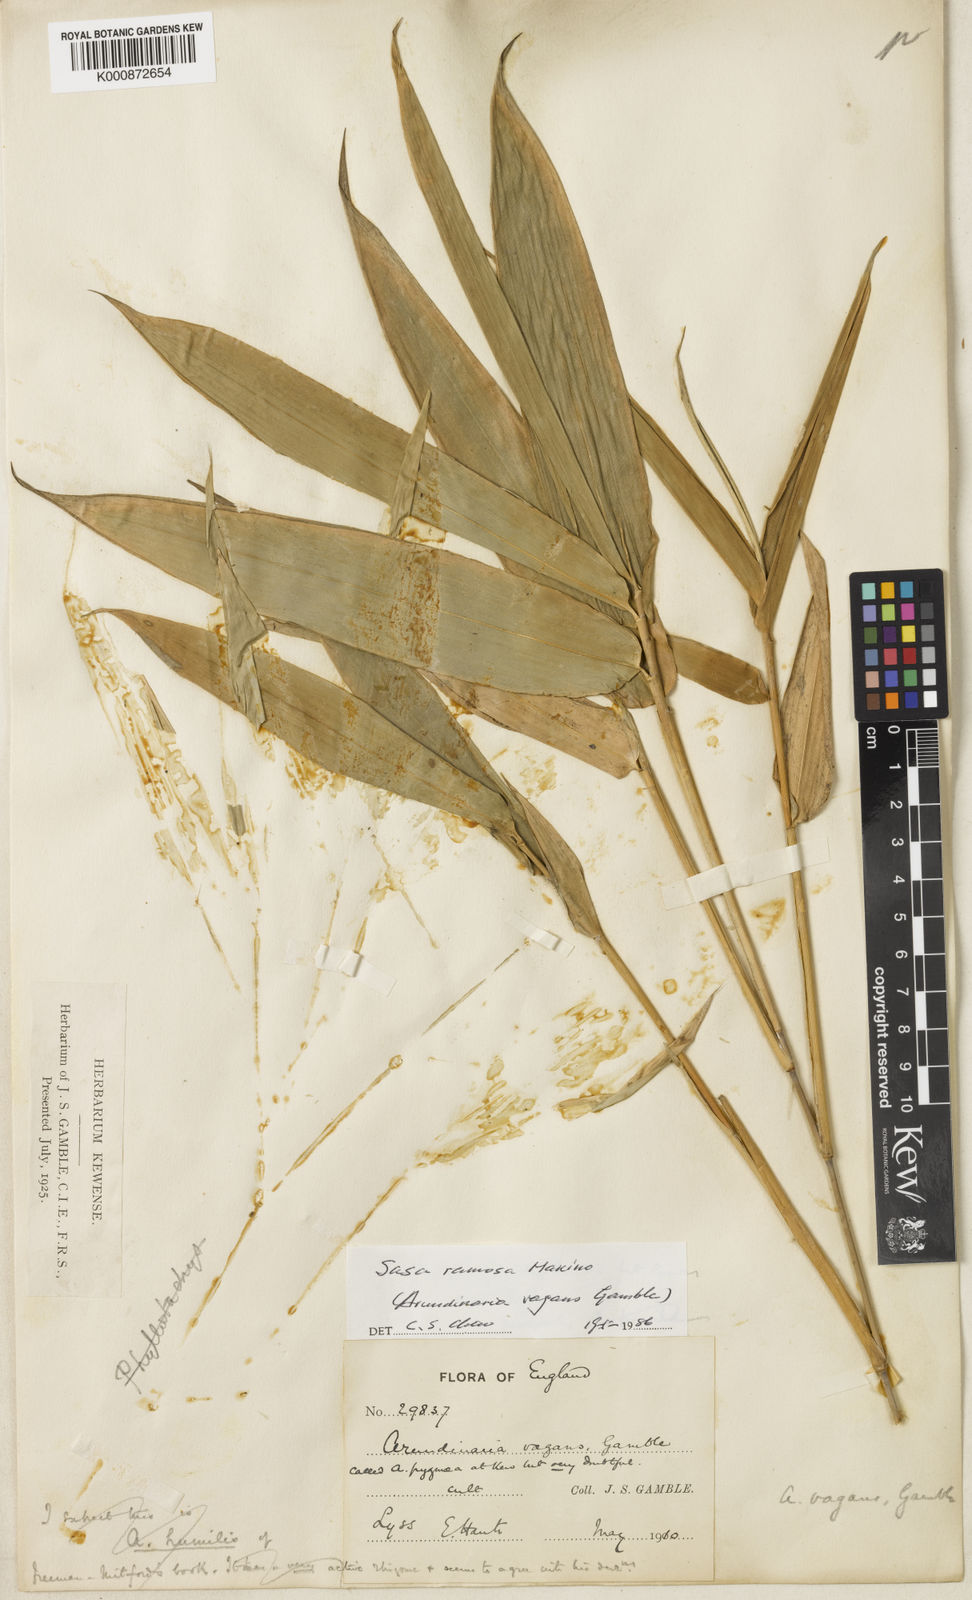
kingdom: Plantae
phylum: Tracheophyta
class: Liliopsida
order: Poales
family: Poaceae
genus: Sasa
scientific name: Sasa
